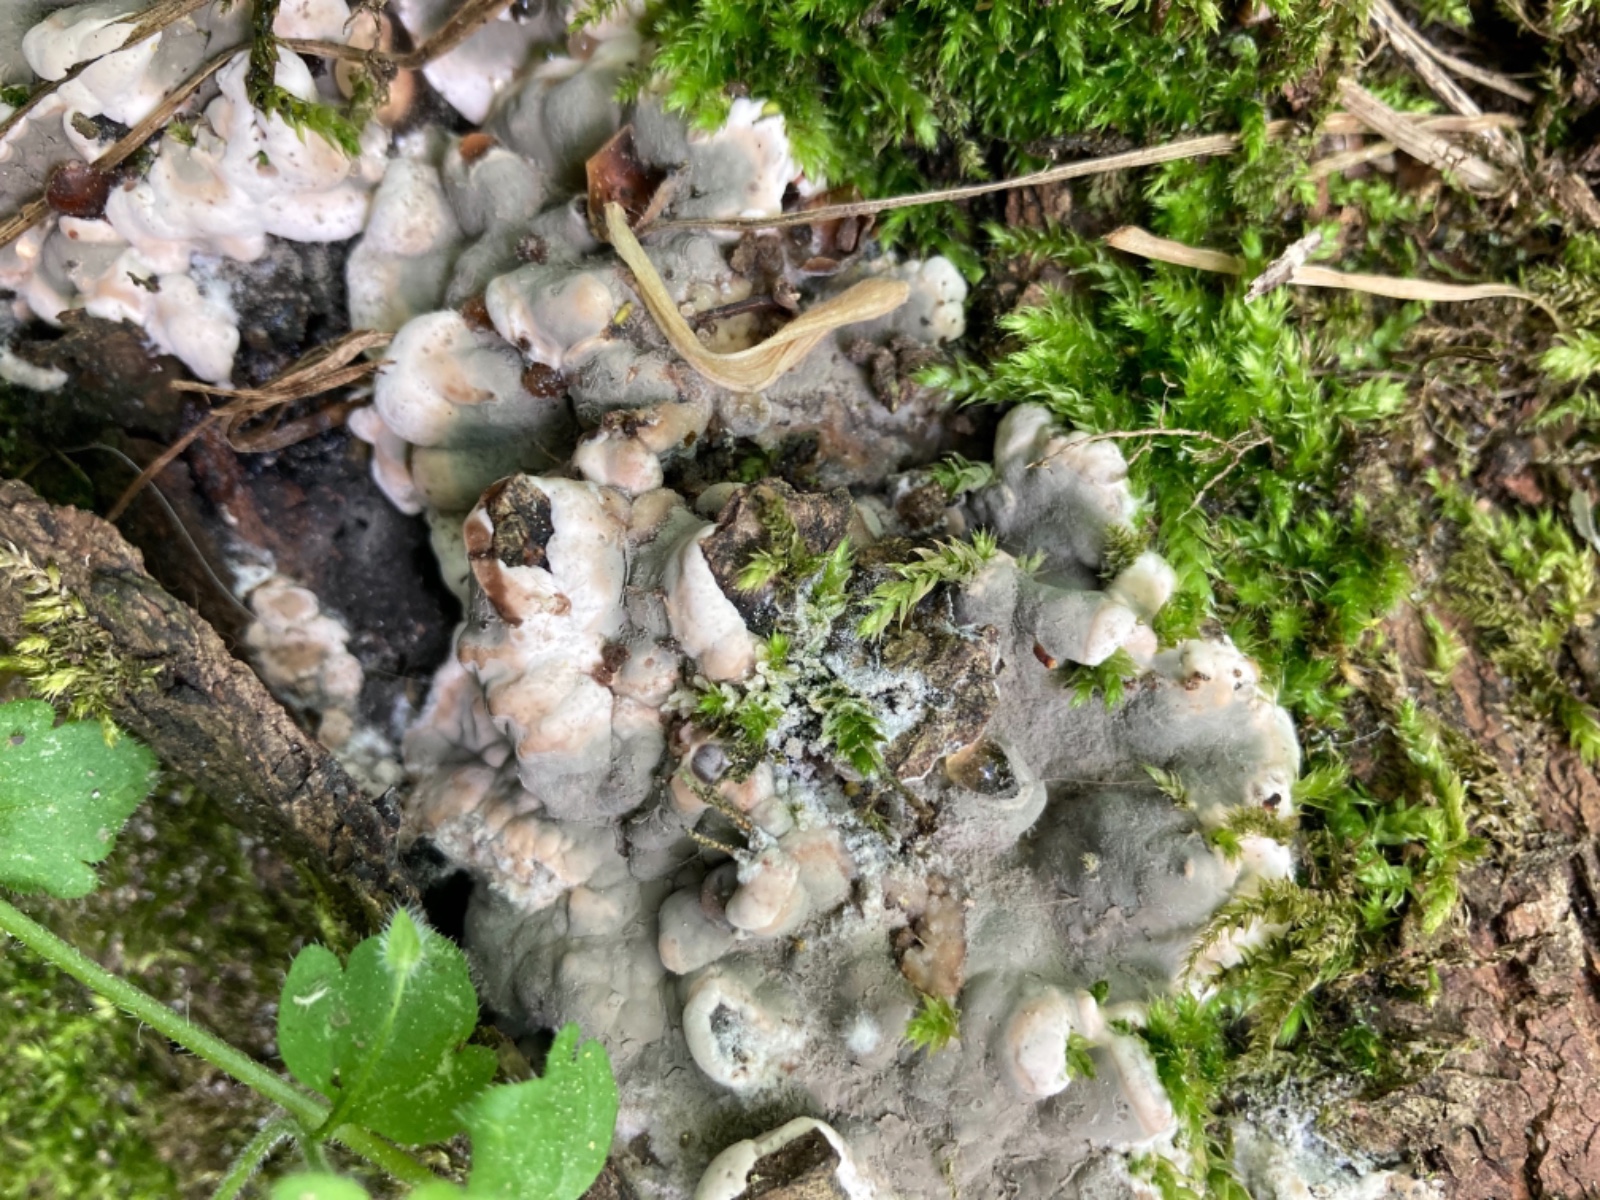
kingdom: Fungi
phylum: Ascomycota
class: Sordariomycetes
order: Xylariales
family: Xylariaceae
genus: Kretzschmaria
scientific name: Kretzschmaria deusta
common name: stor kulsvamp
